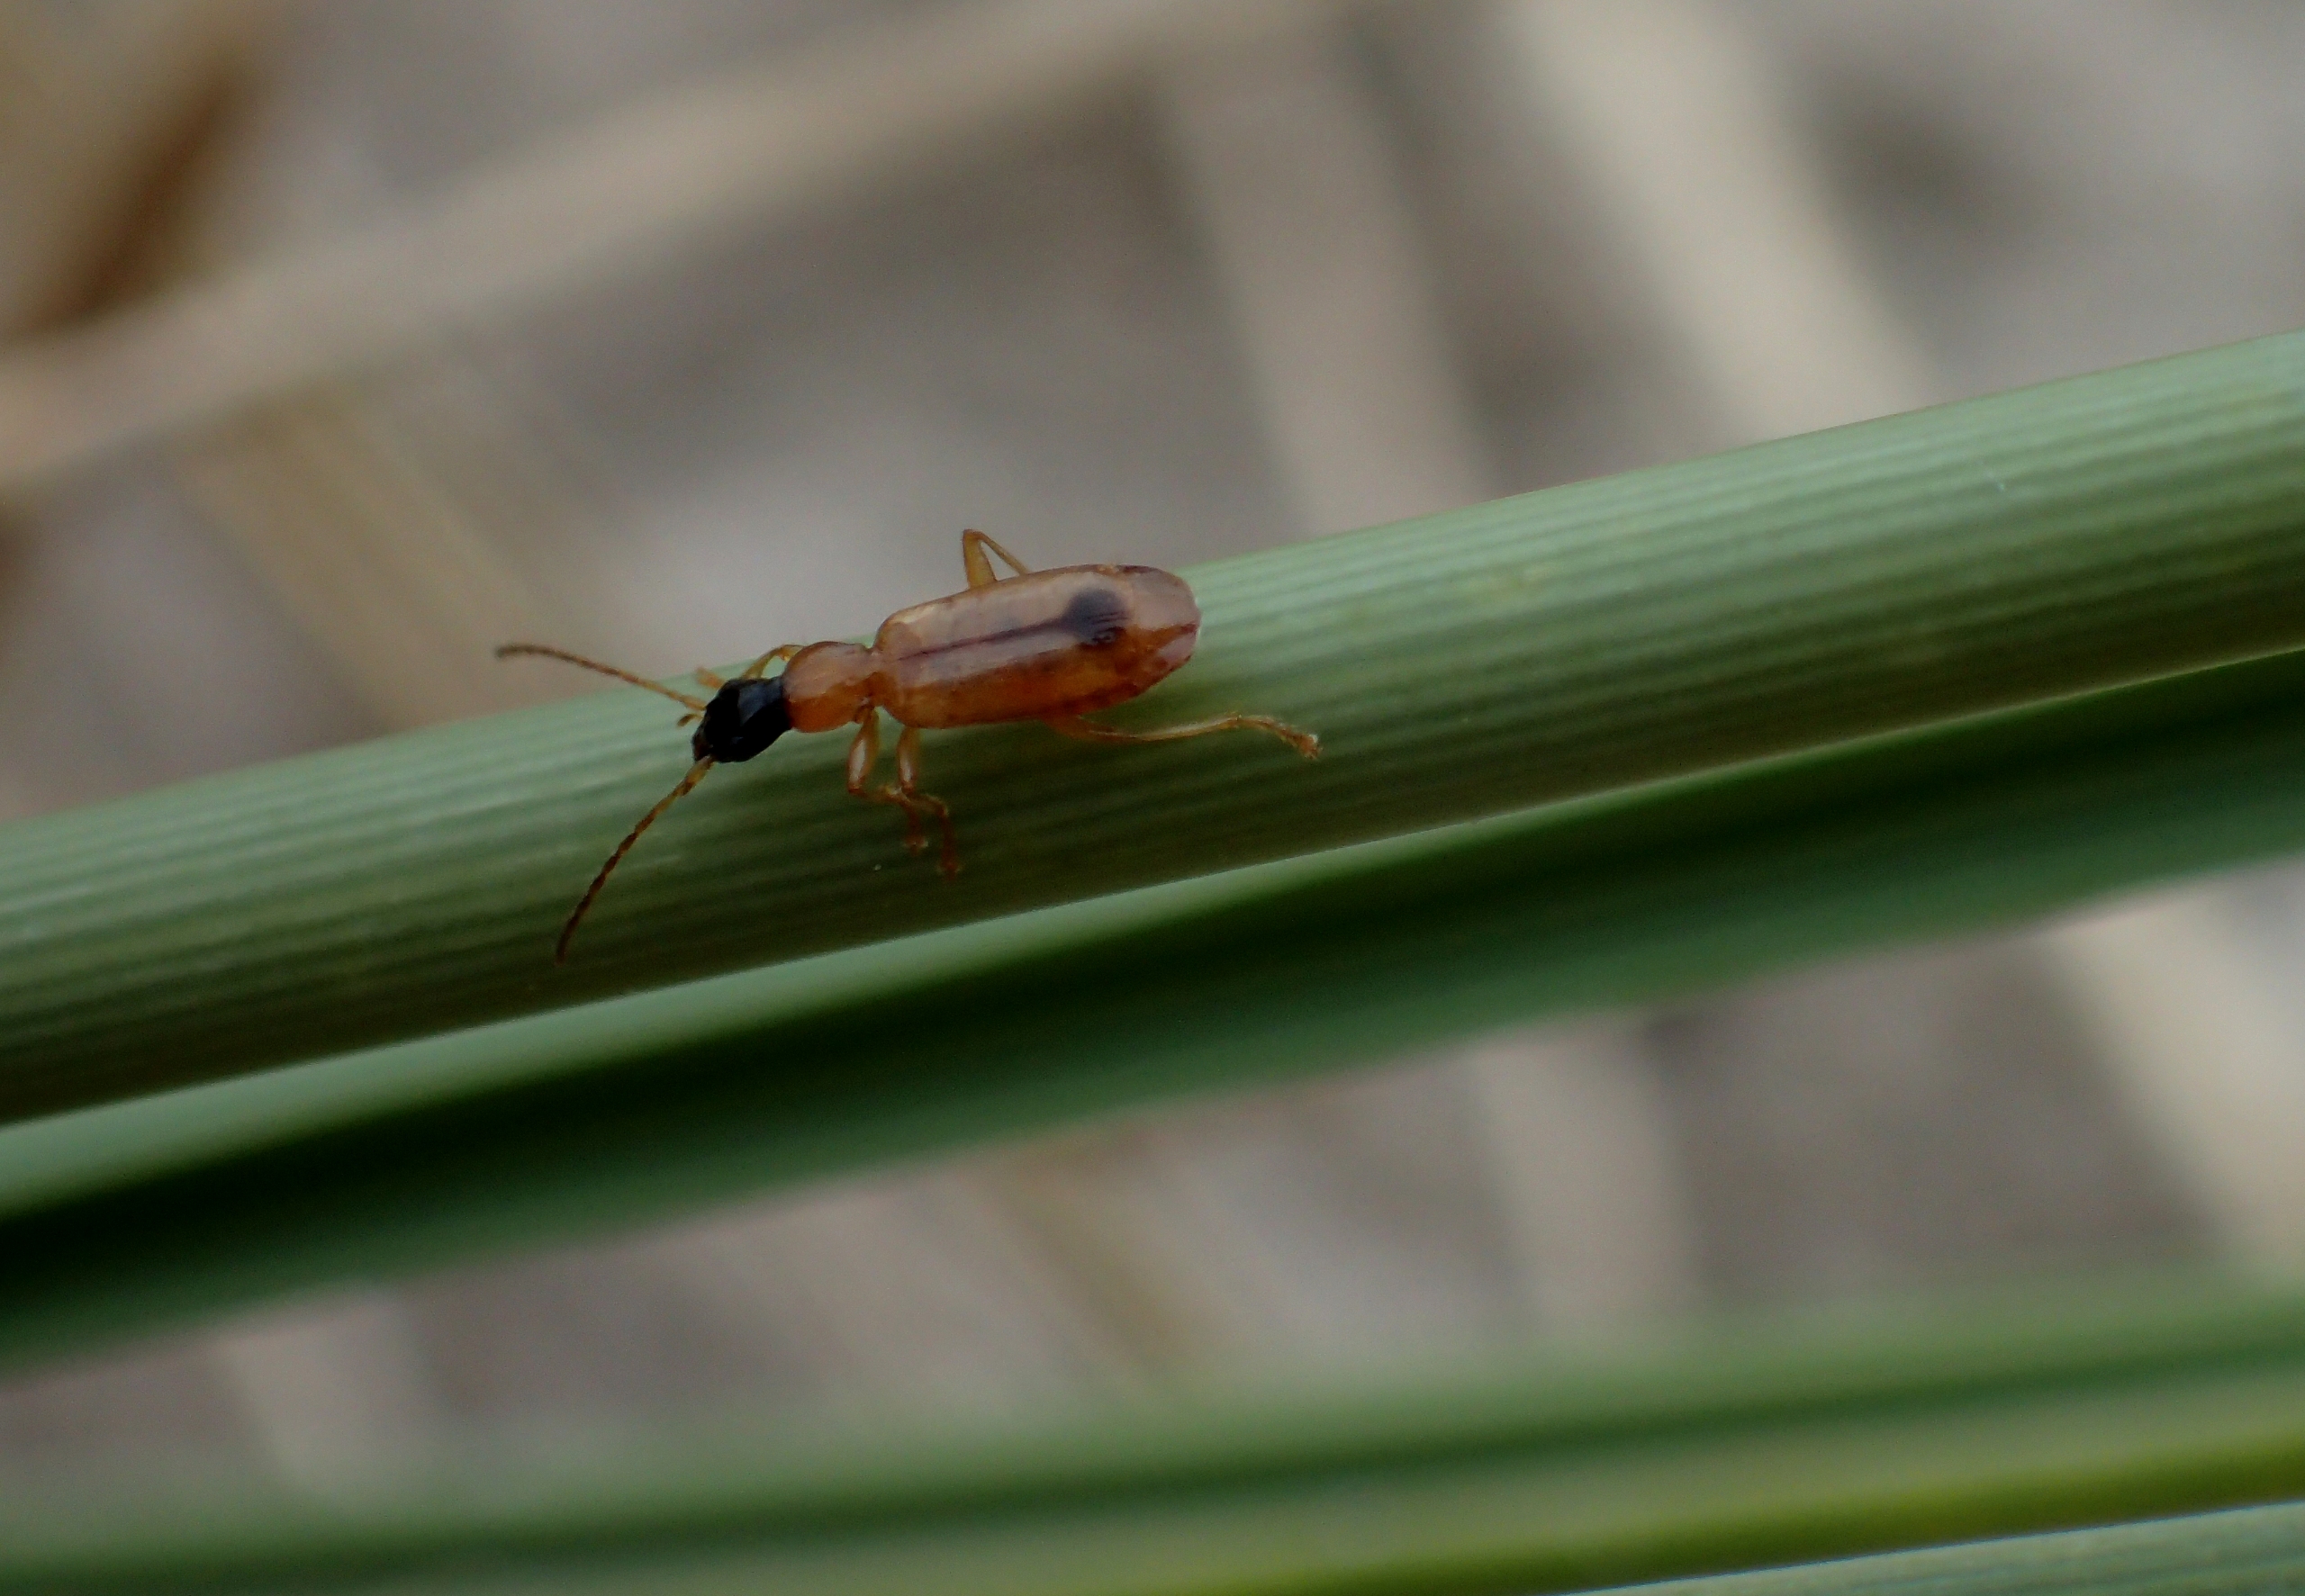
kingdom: Animalia
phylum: Arthropoda
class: Insecta
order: Coleoptera
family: Carabidae
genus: Demetrias
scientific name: Demetrias monostigma
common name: Klitsmalløber
